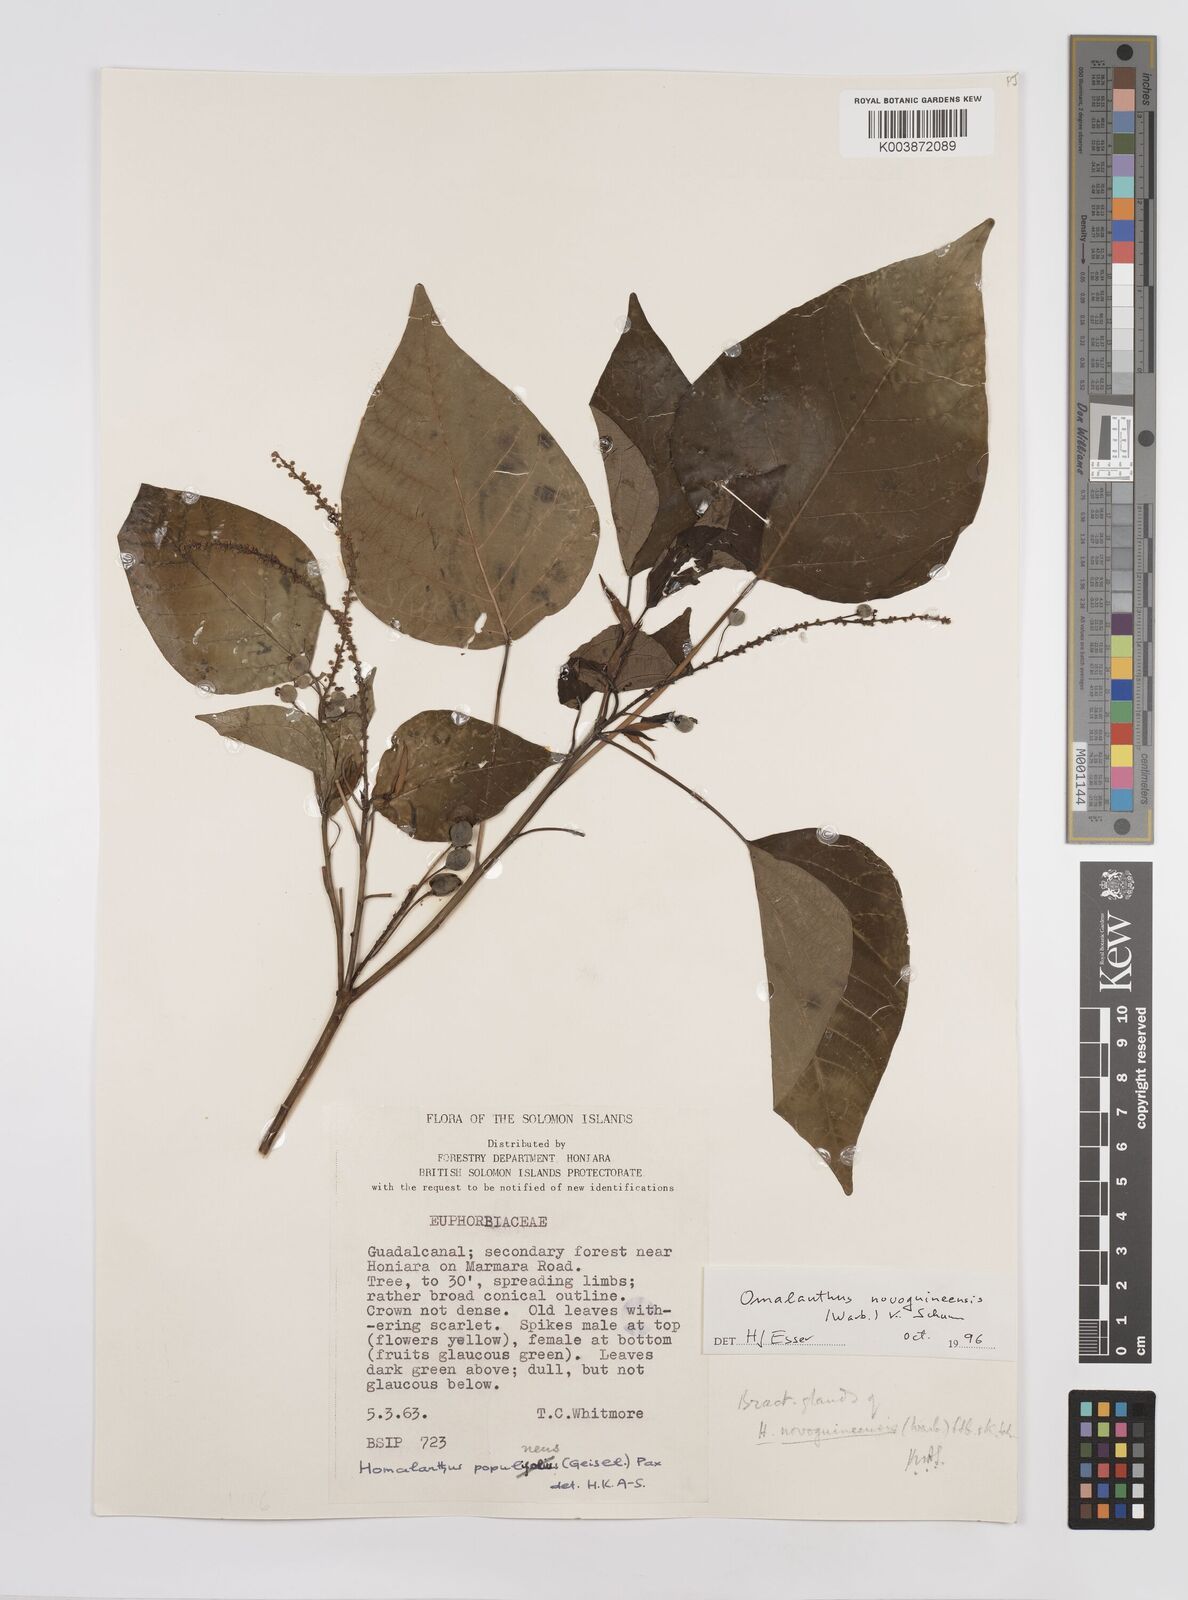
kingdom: Plantae
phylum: Tracheophyta
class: Magnoliopsida
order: Malpighiales
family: Euphorbiaceae
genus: Homalanthus
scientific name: Homalanthus novoguineensis
